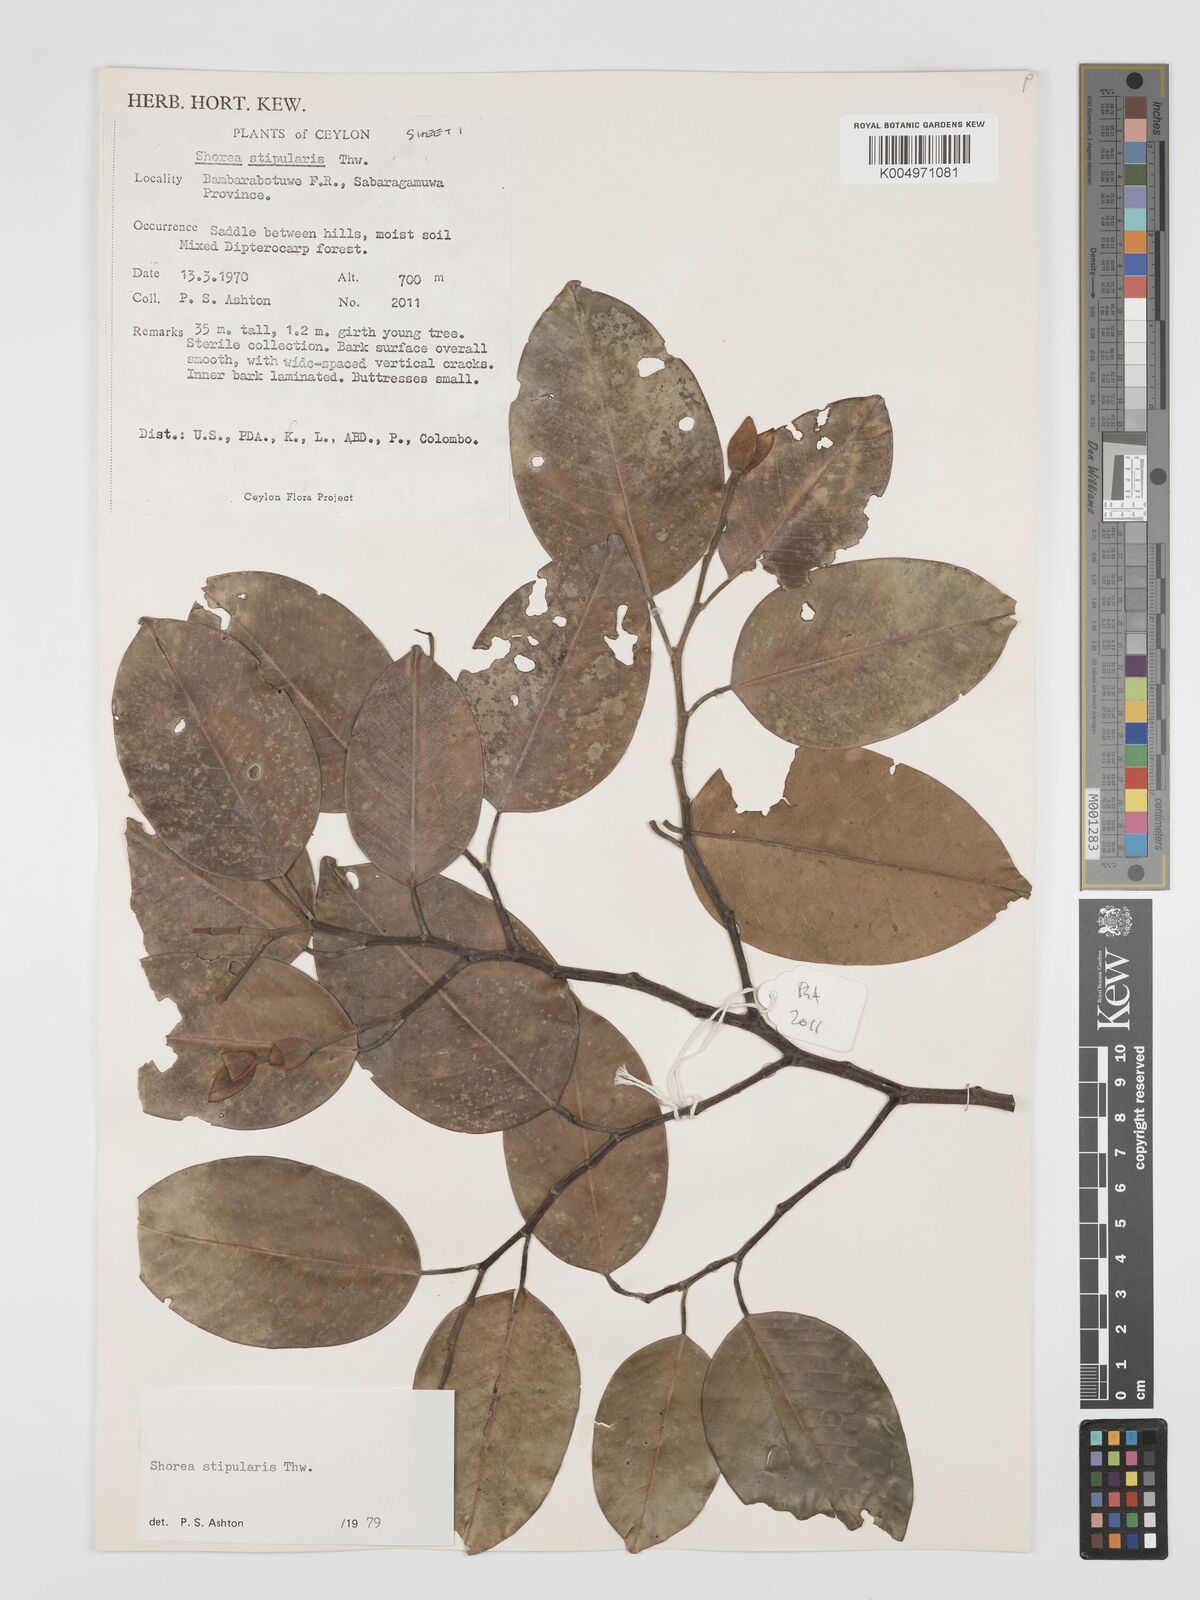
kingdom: Plantae
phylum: Tracheophyta
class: Magnoliopsida
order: Malvales
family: Dipterocarpaceae
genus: Anthoshorea
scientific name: Anthoshorea stipularis
